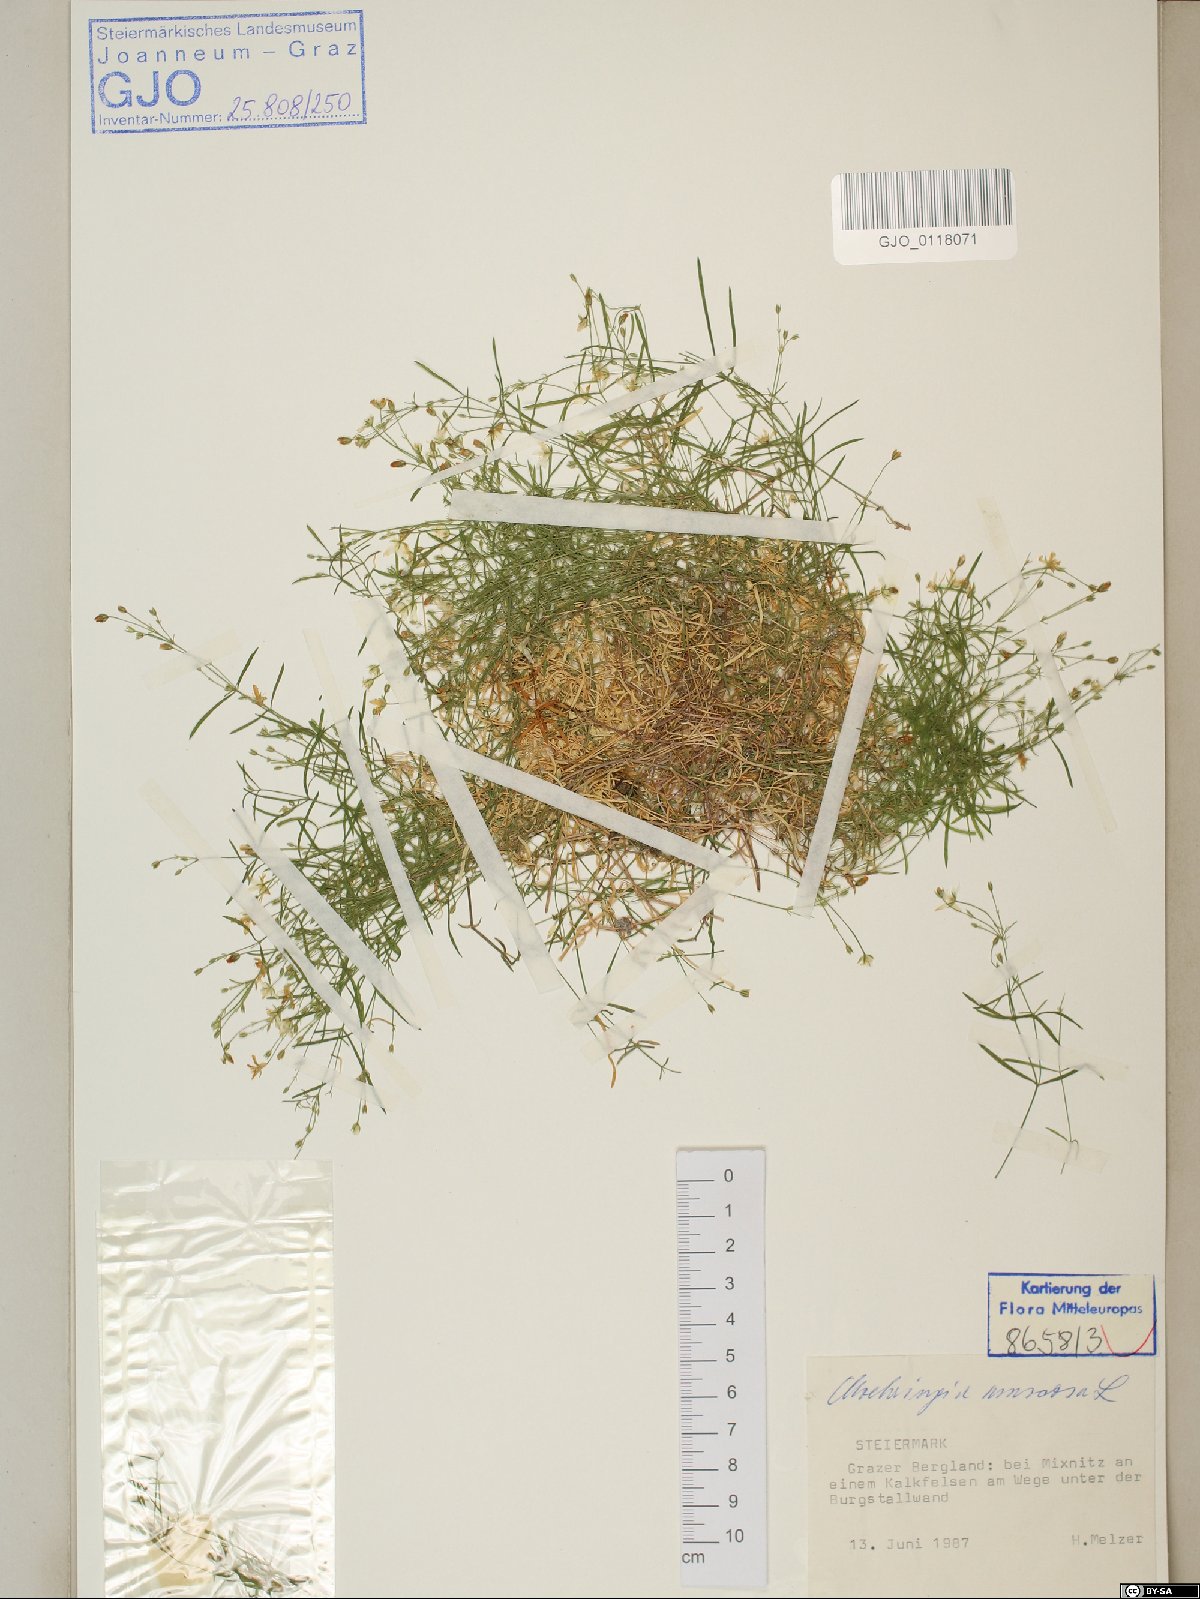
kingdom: Plantae
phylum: Tracheophyta
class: Magnoliopsida
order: Caryophyllales
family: Caryophyllaceae
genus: Moehringia
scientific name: Moehringia muscosa
